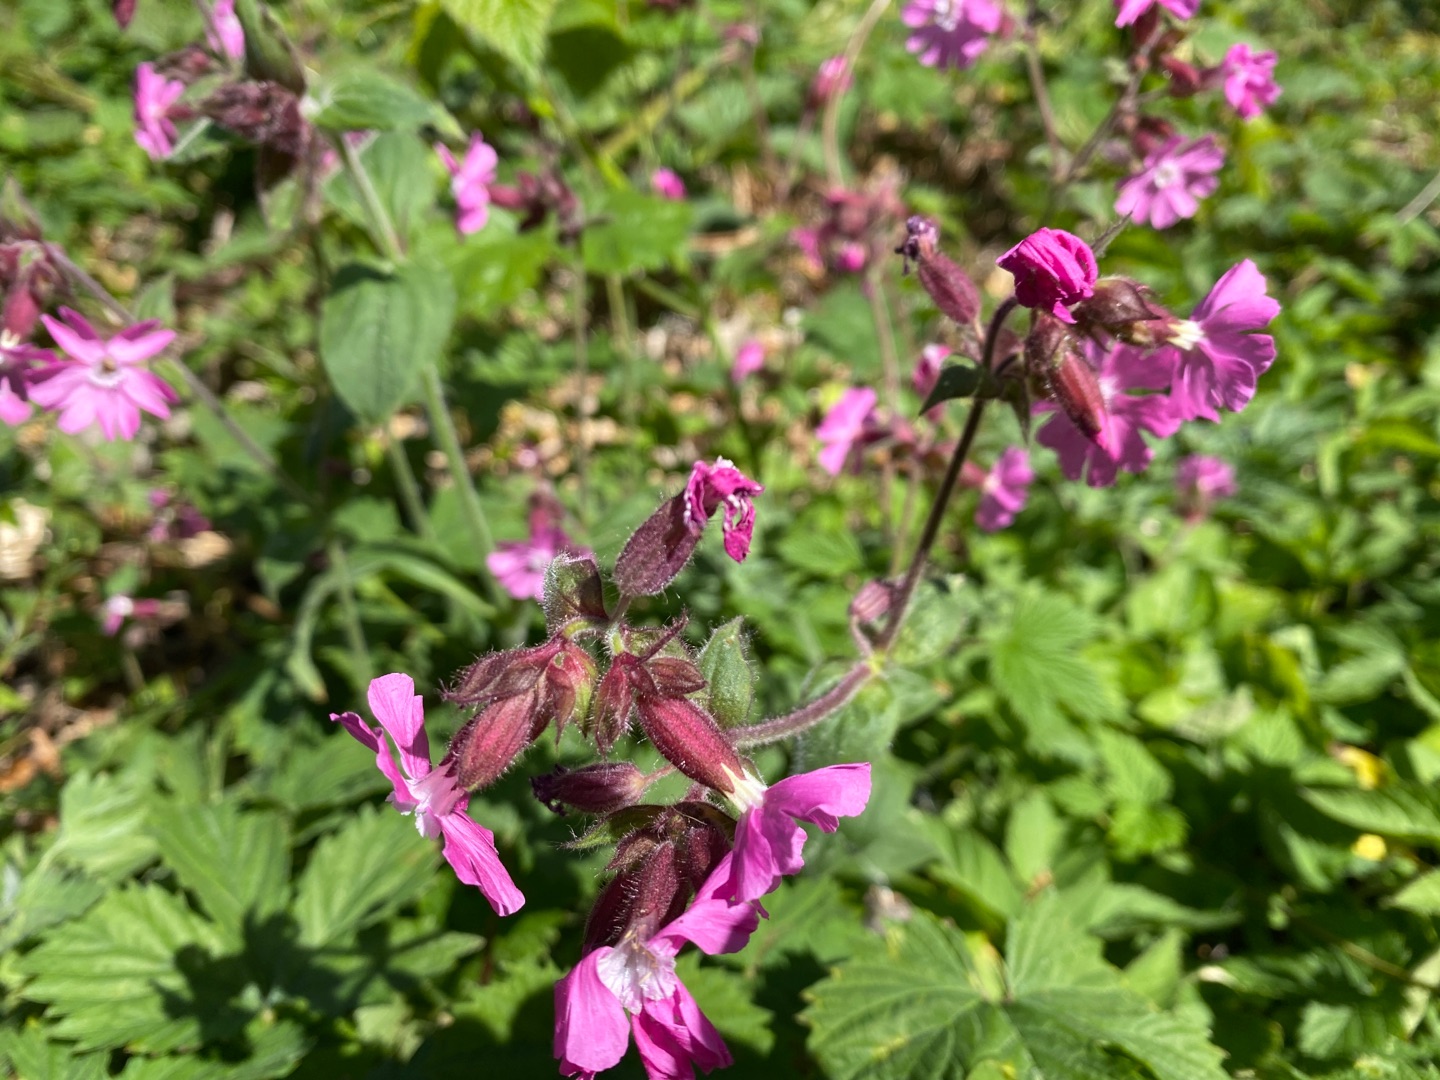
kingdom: Plantae
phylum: Tracheophyta
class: Magnoliopsida
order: Caryophyllales
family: Caryophyllaceae
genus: Silene
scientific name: Silene dioica
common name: Dagpragtstjerne
